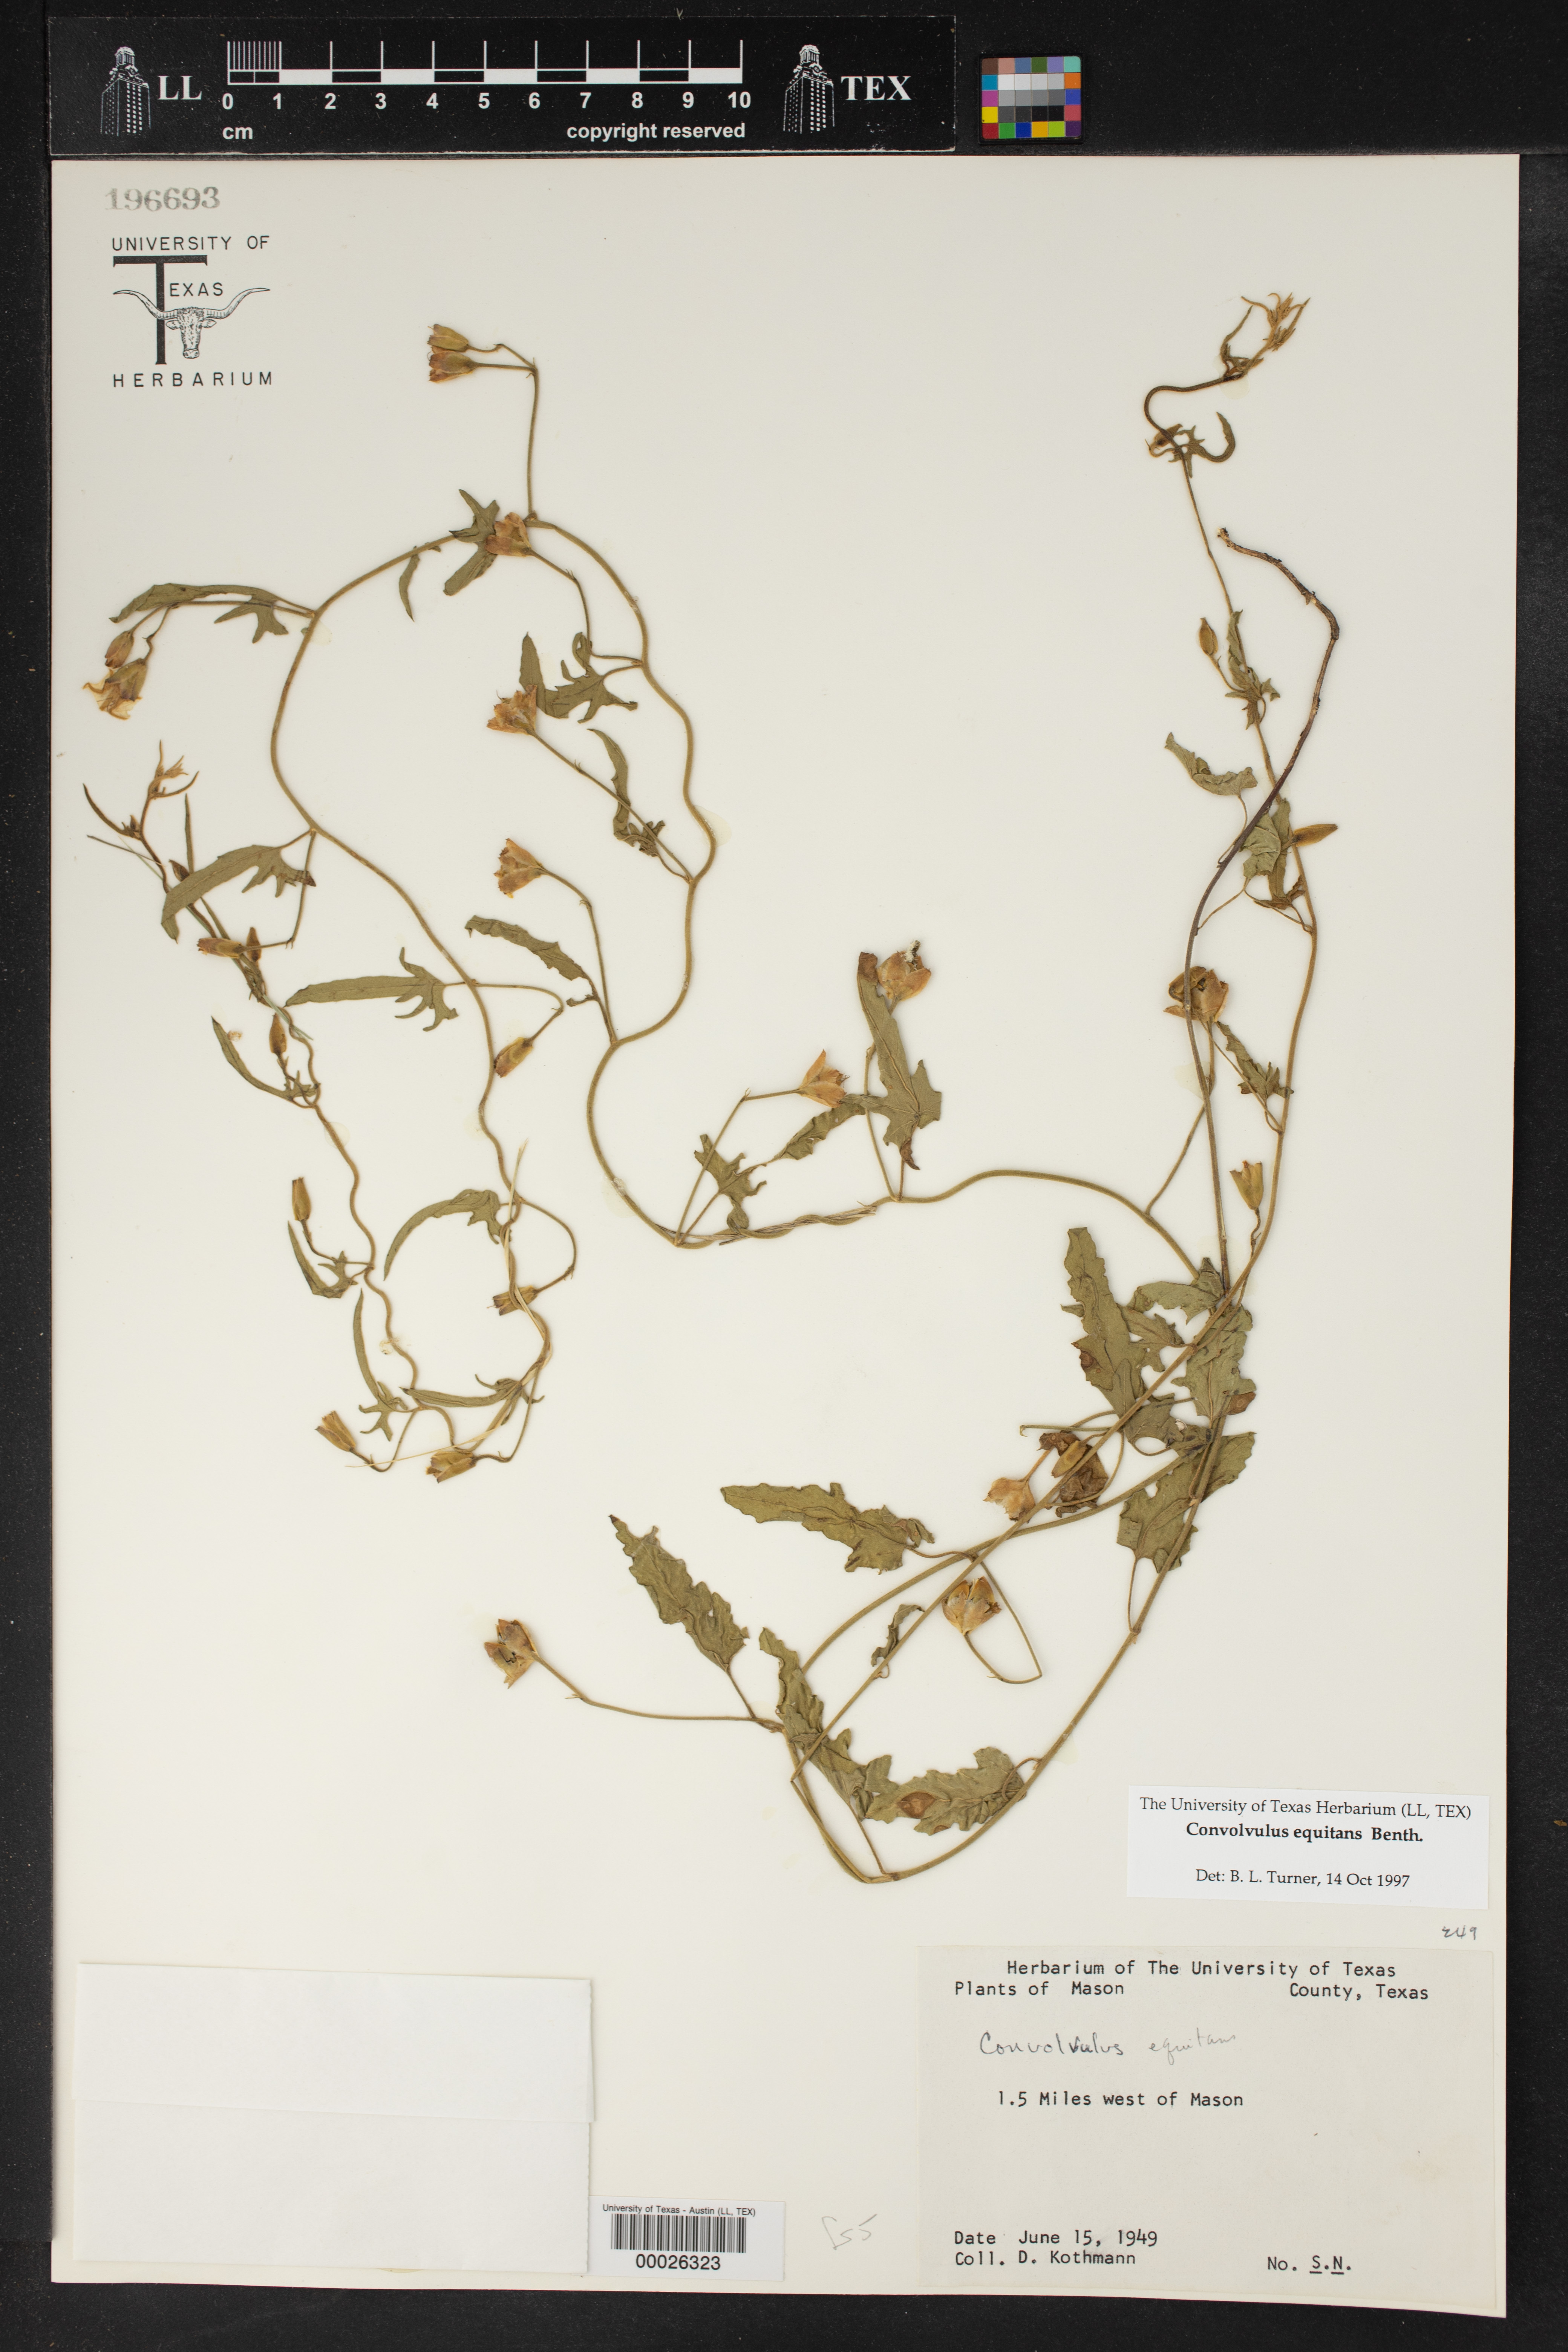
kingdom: Plantae
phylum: Tracheophyta
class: Magnoliopsida
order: Solanales
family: Convolvulaceae
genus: Convolvulus
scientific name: Convolvulus equitans
